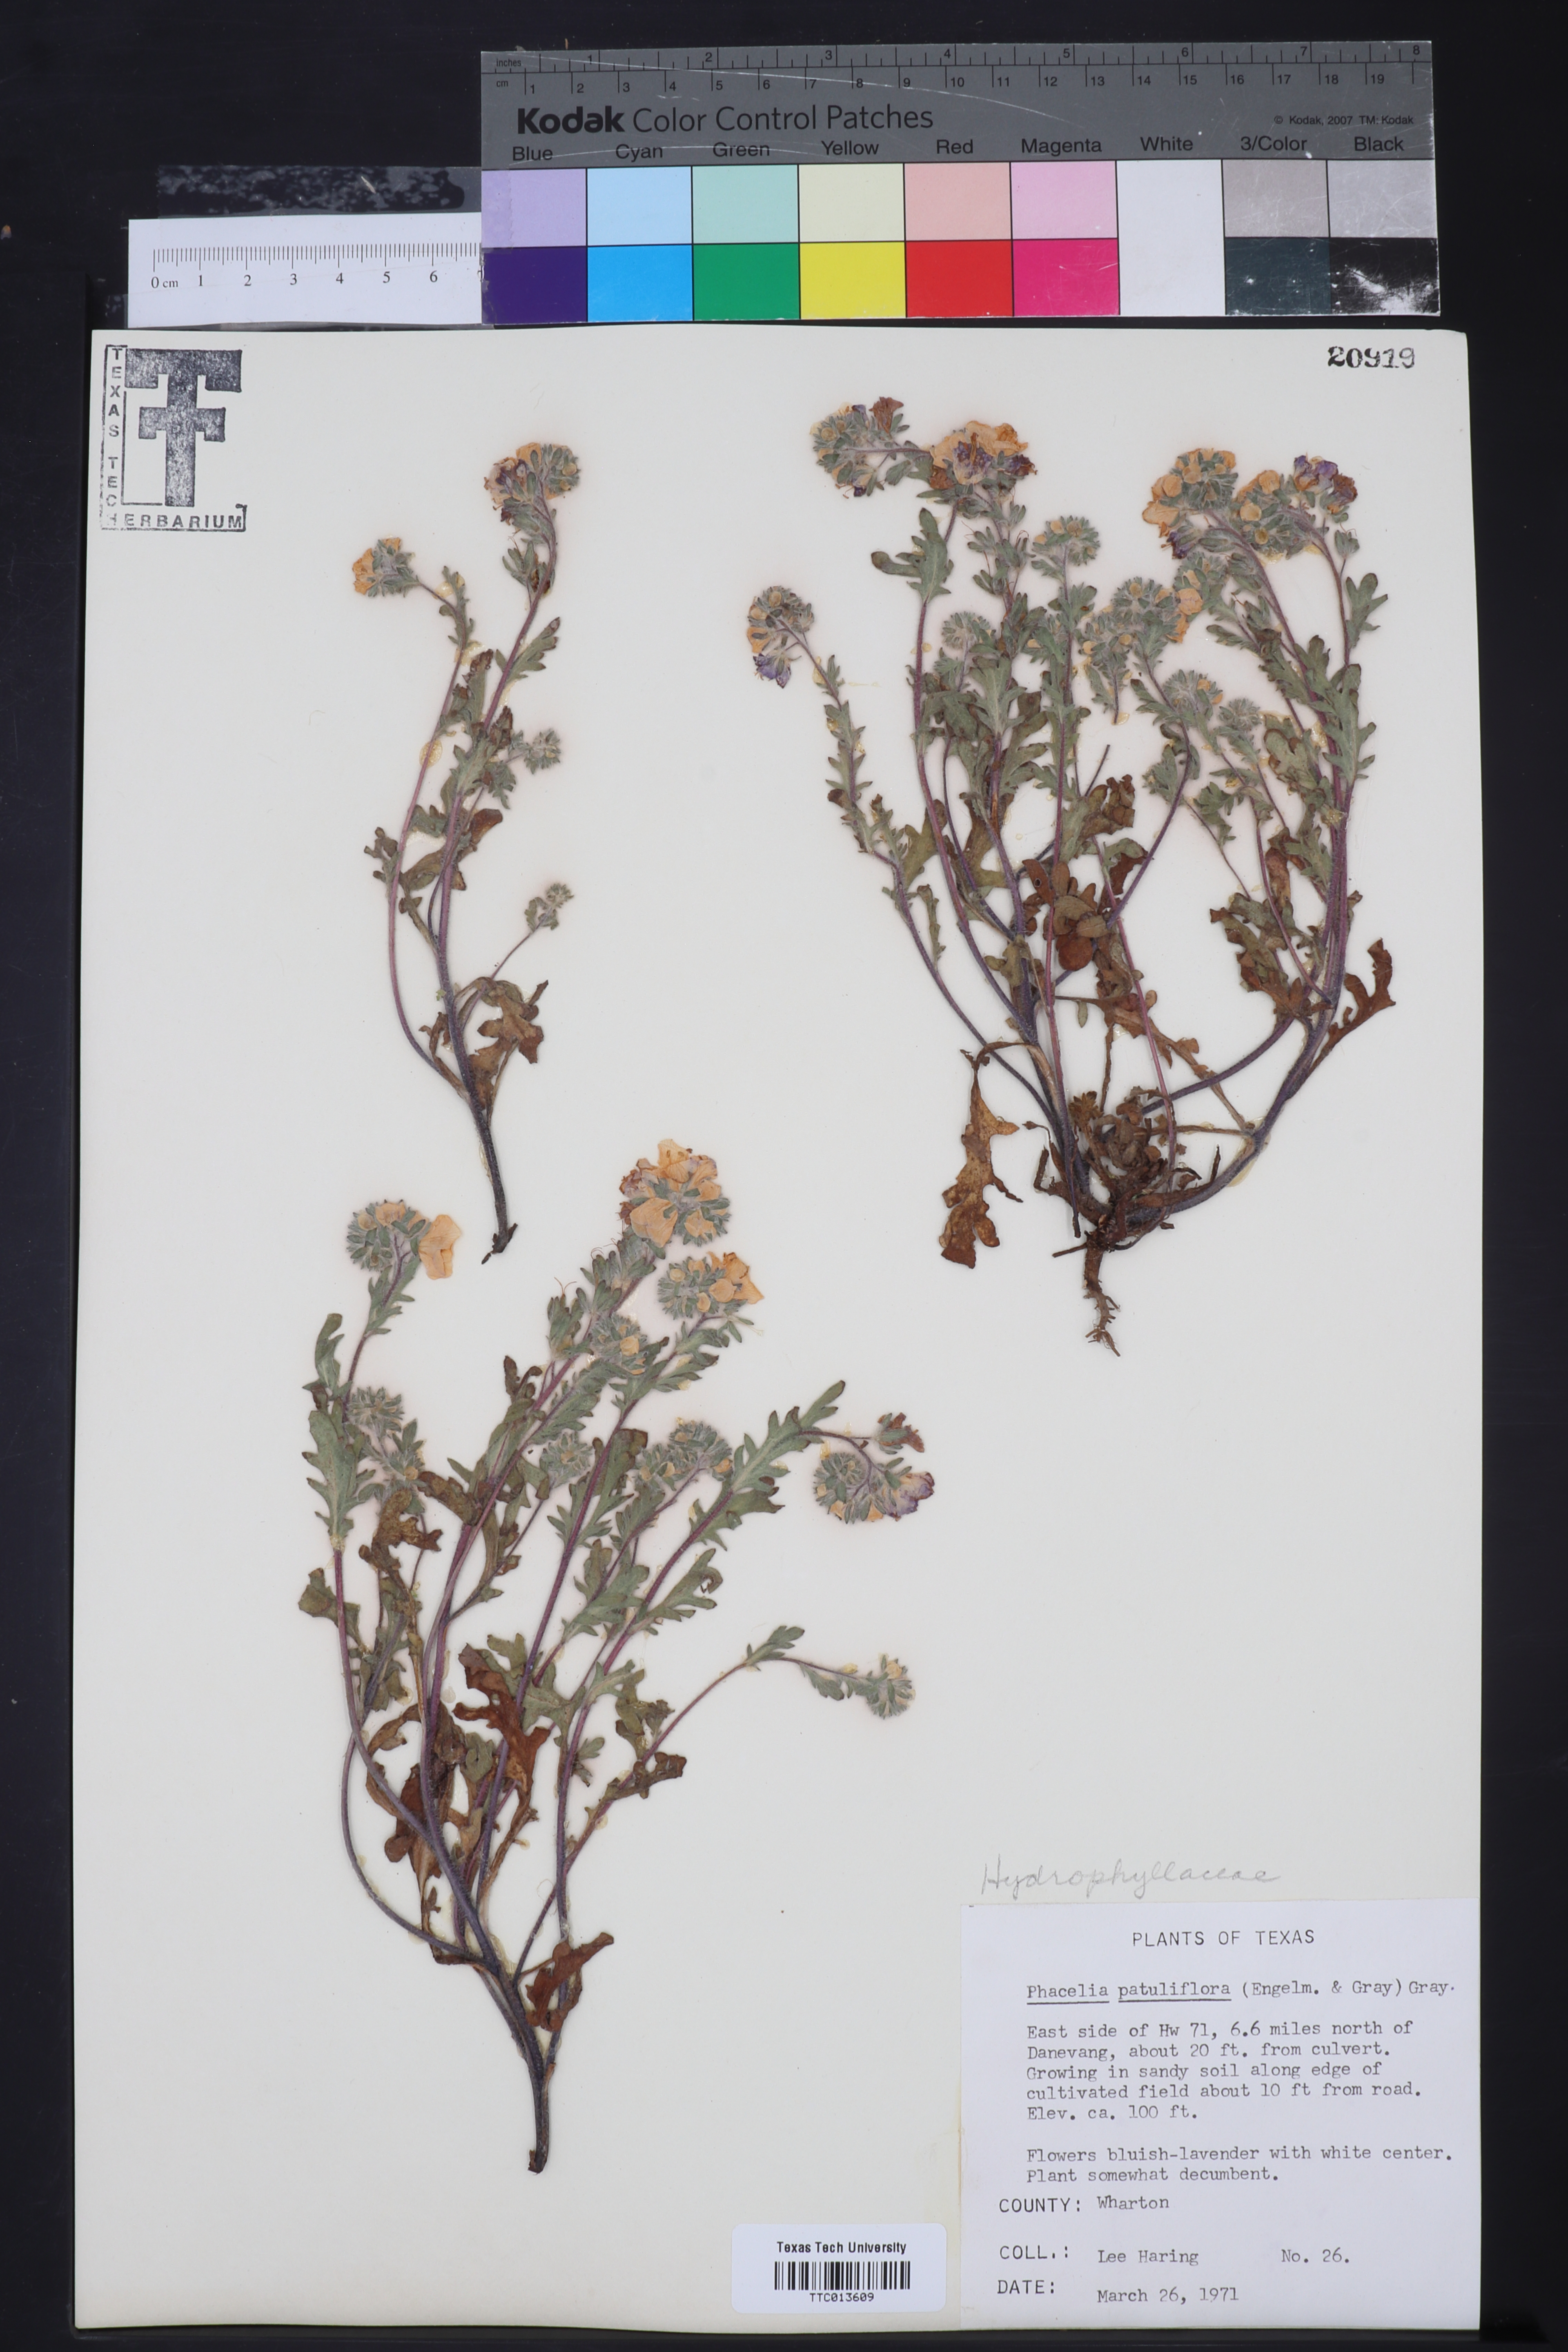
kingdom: Plantae
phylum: Tracheophyta
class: Magnoliopsida
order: Boraginales
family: Hydrophyllaceae
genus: Phacelia
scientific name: Phacelia patuliflora
